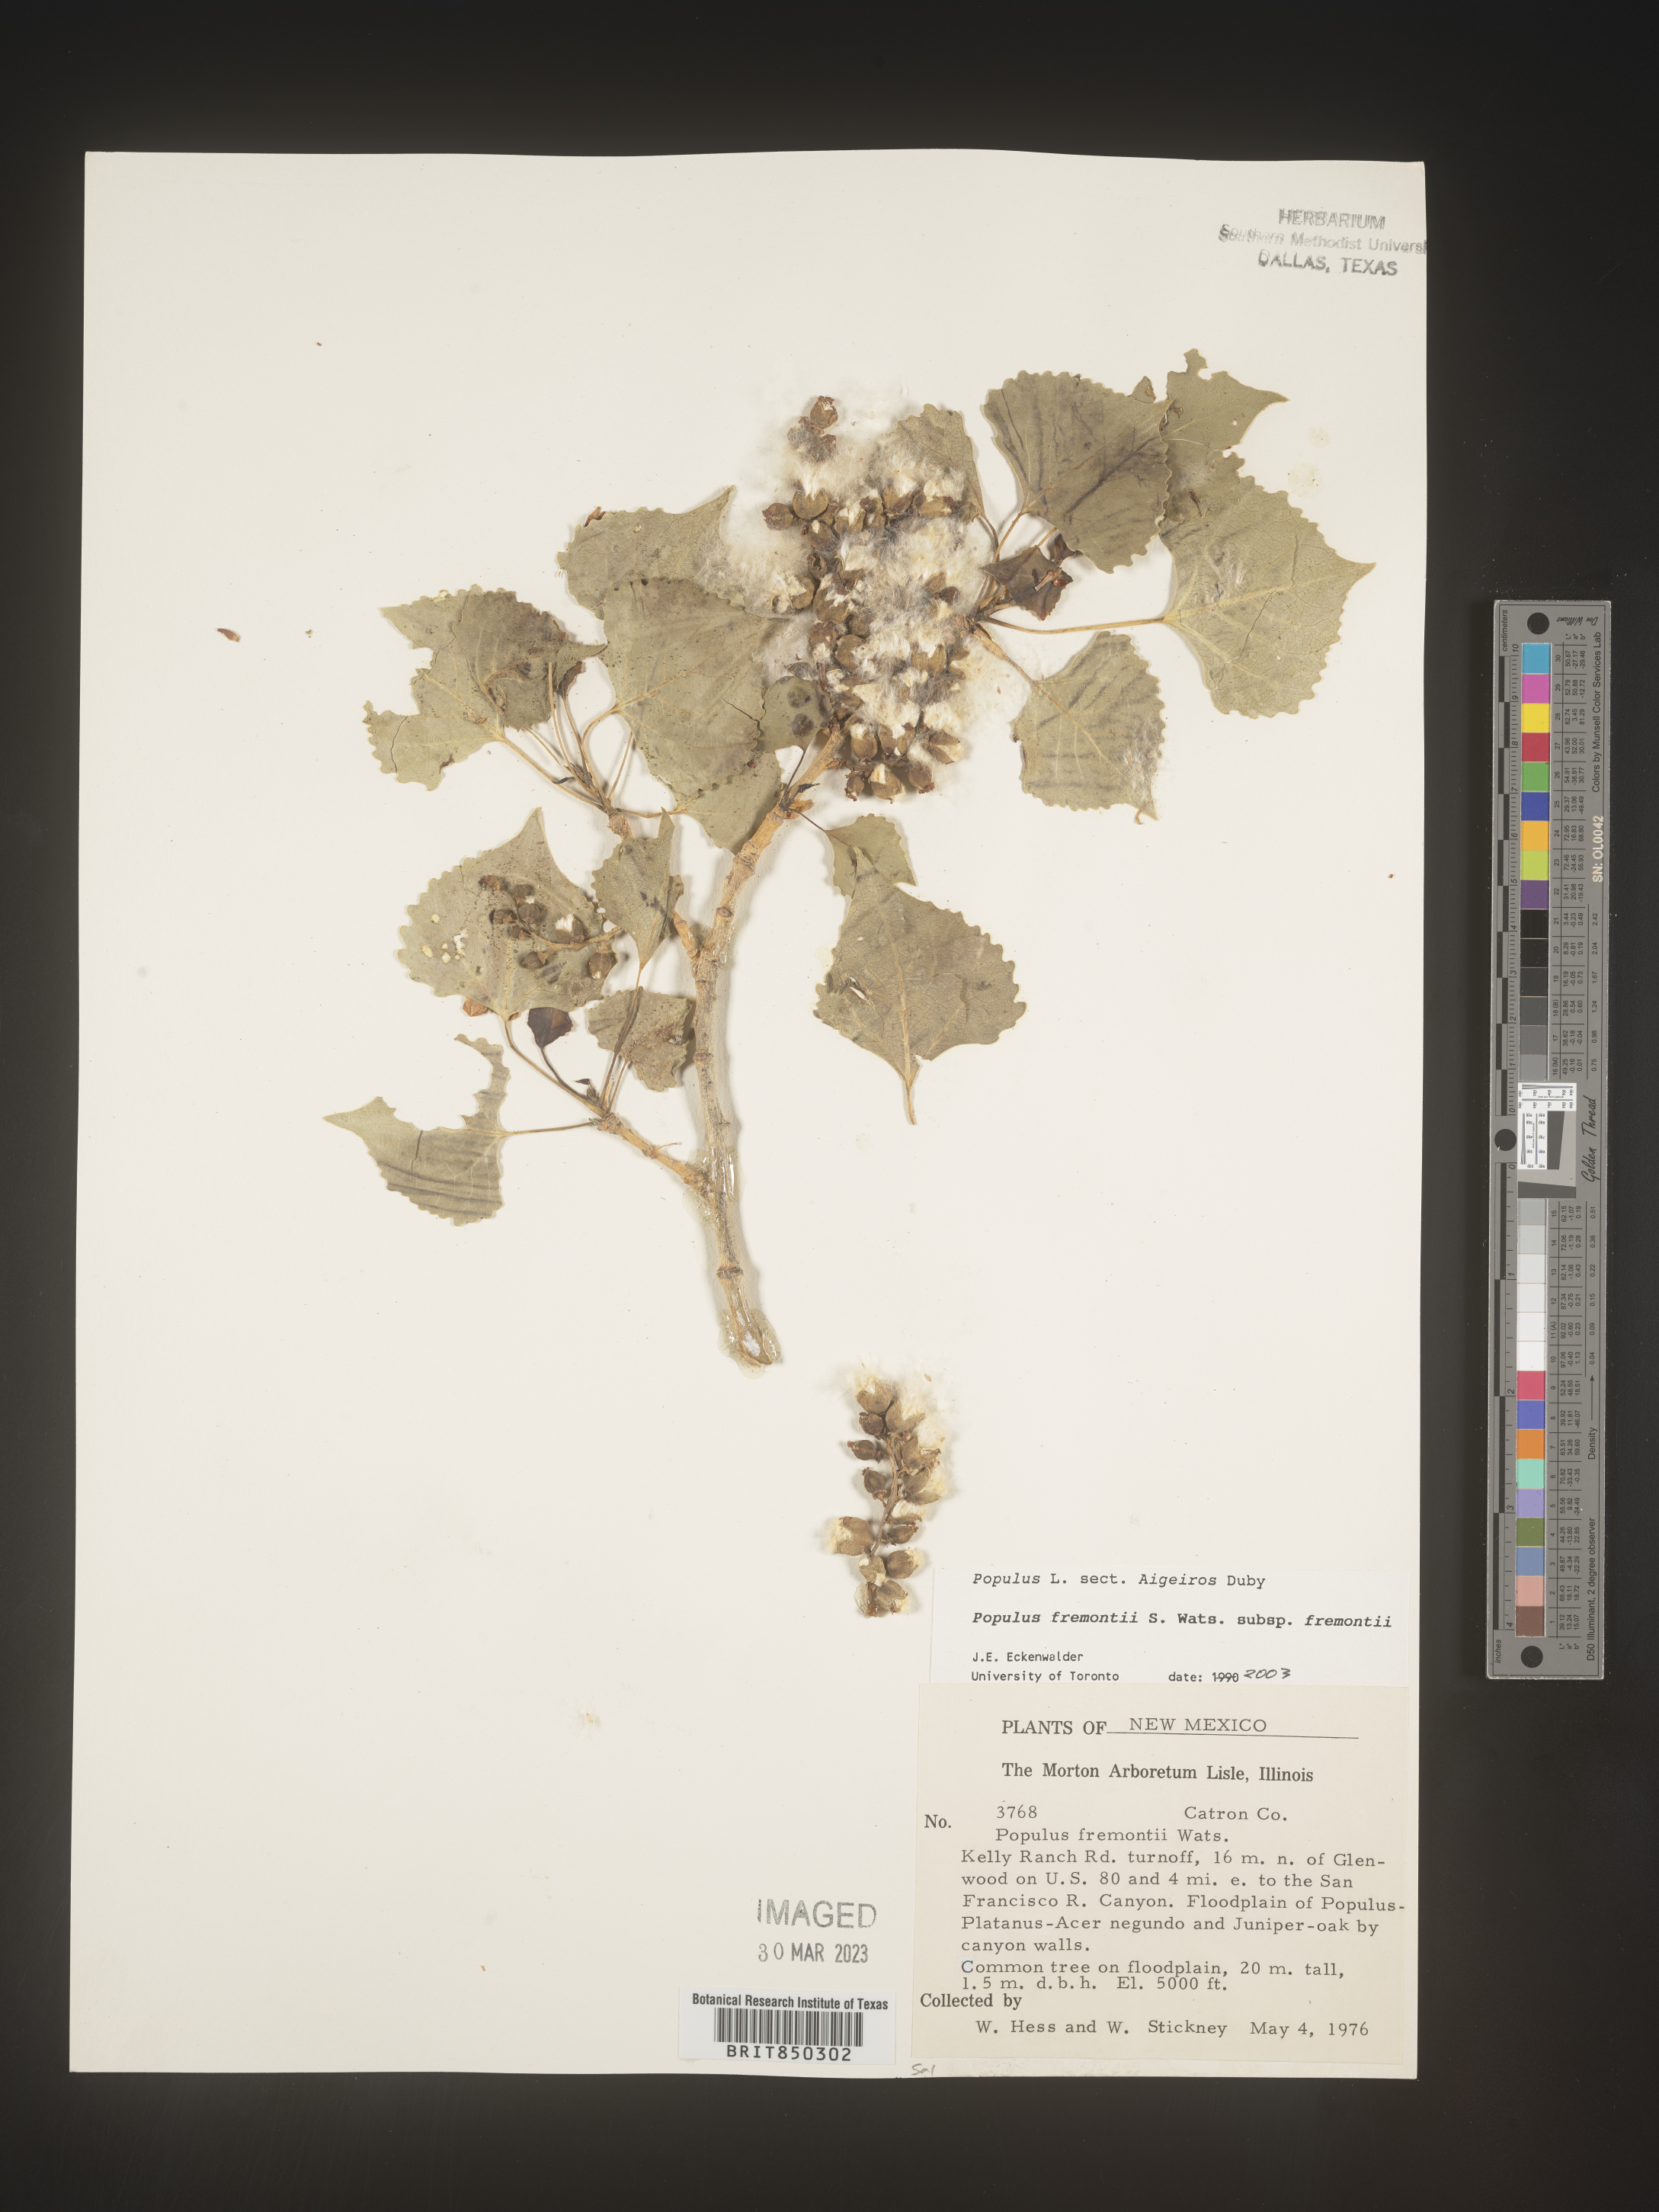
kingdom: Plantae
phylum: Tracheophyta
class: Magnoliopsida
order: Malpighiales
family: Salicaceae
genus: Populus
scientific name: Populus fremontii
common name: Fremont's cottonwood
